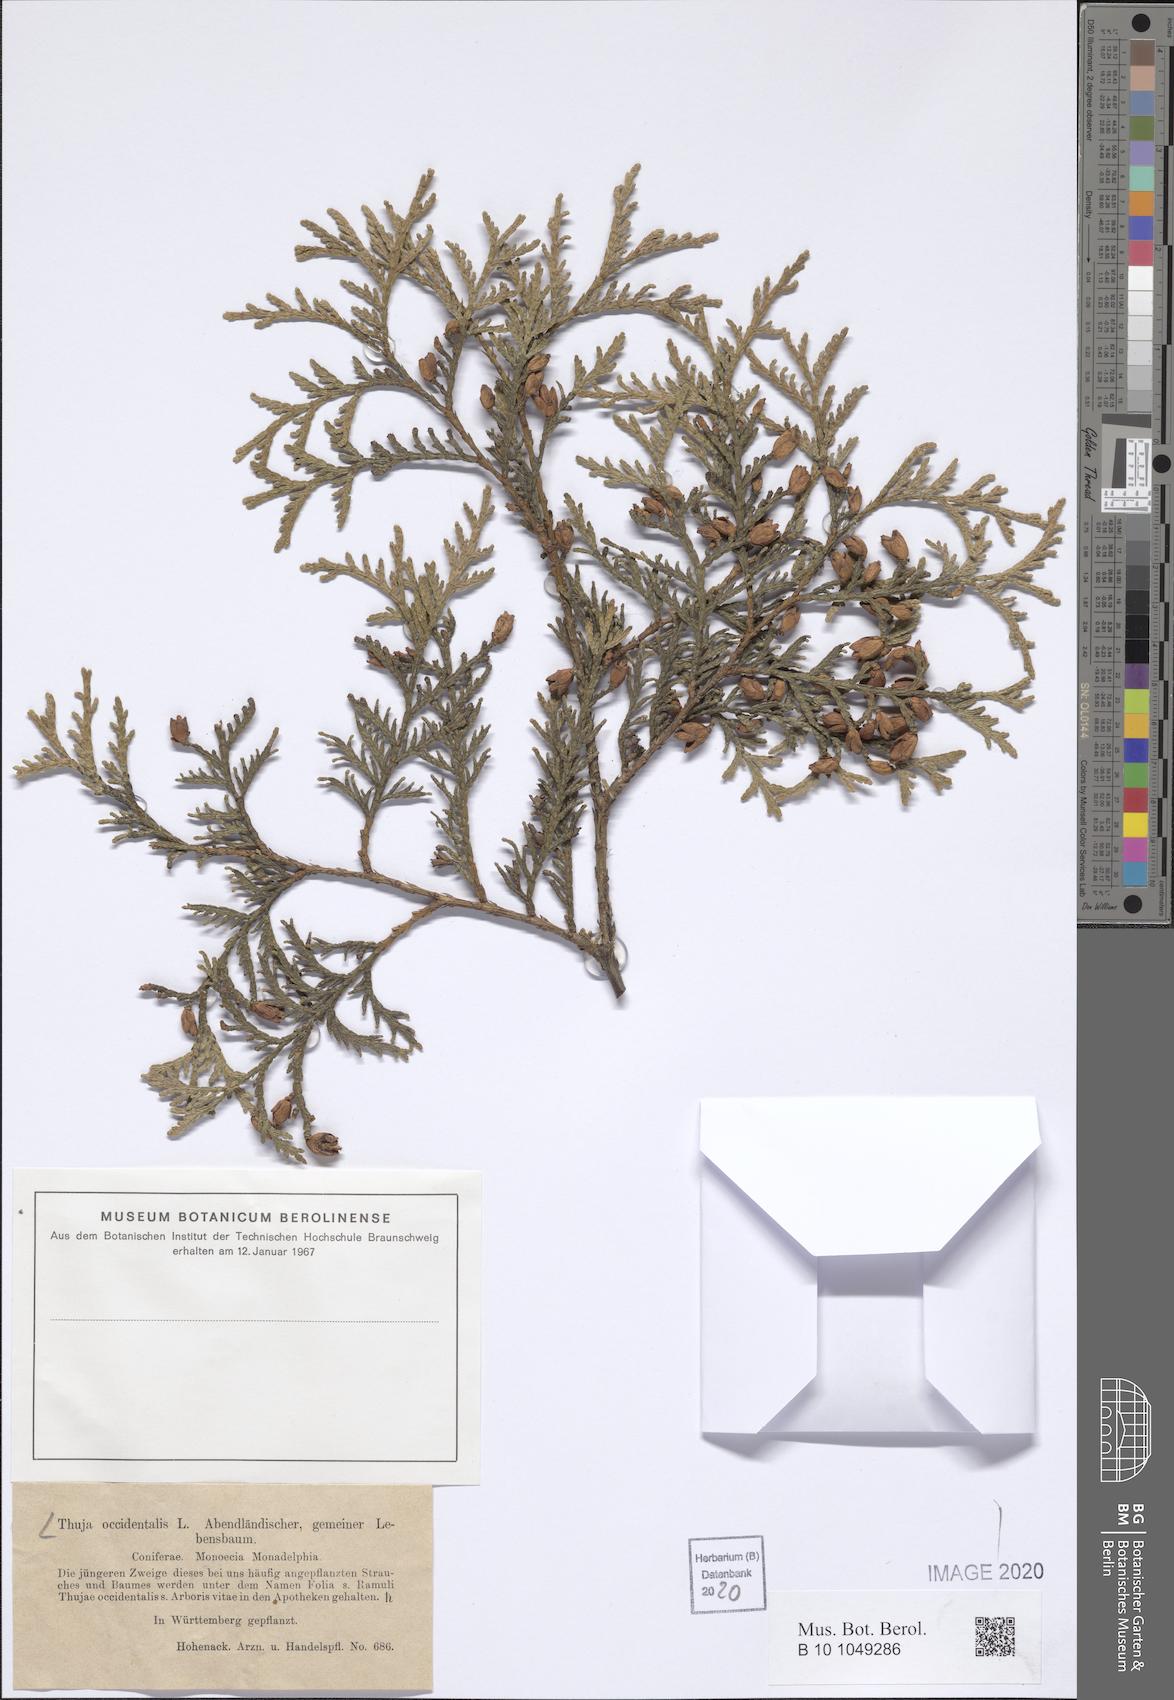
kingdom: Plantae
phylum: Tracheophyta
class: Pinopsida
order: Pinales
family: Cupressaceae
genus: Thuja
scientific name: Thuja occidentalis
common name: Northern white-cedar
